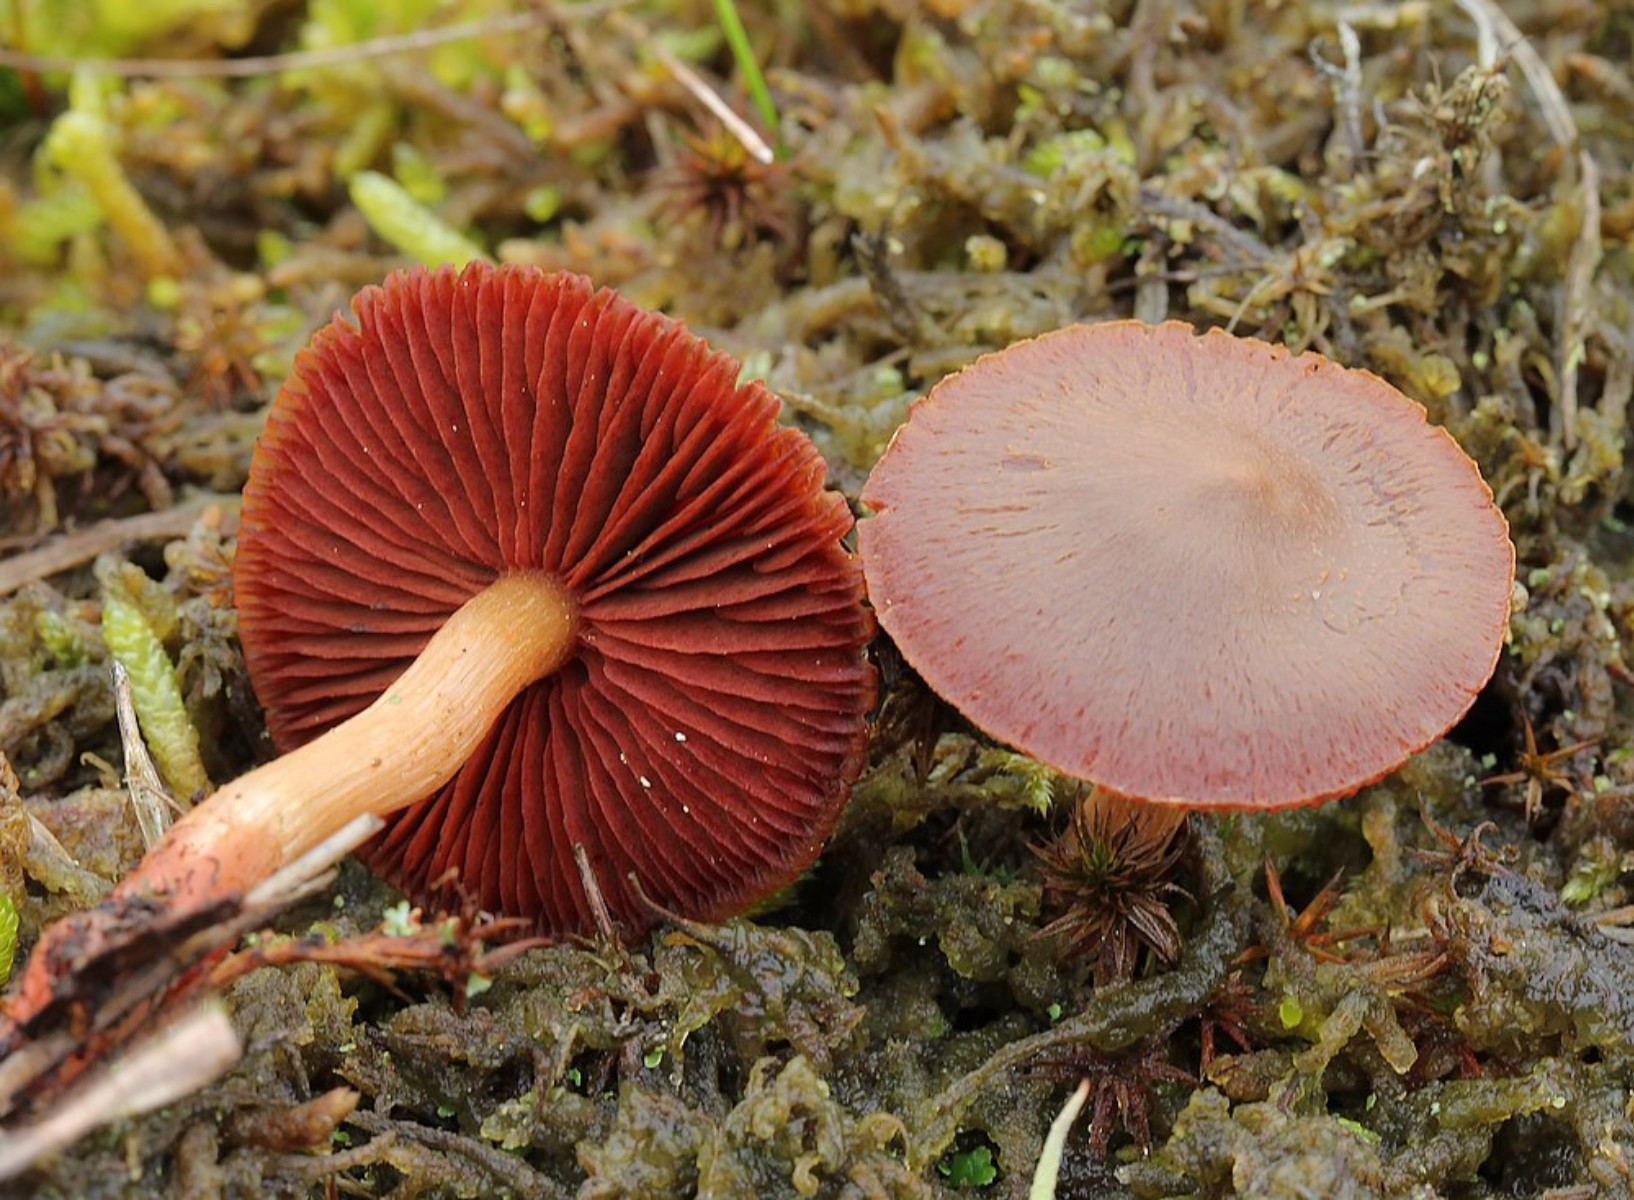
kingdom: Fungi
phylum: Basidiomycota
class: Agaricomycetes
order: Agaricales
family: Cortinariaceae
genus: Cortinarius
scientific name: Cortinarius
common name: cinnoberbladet slørhat
